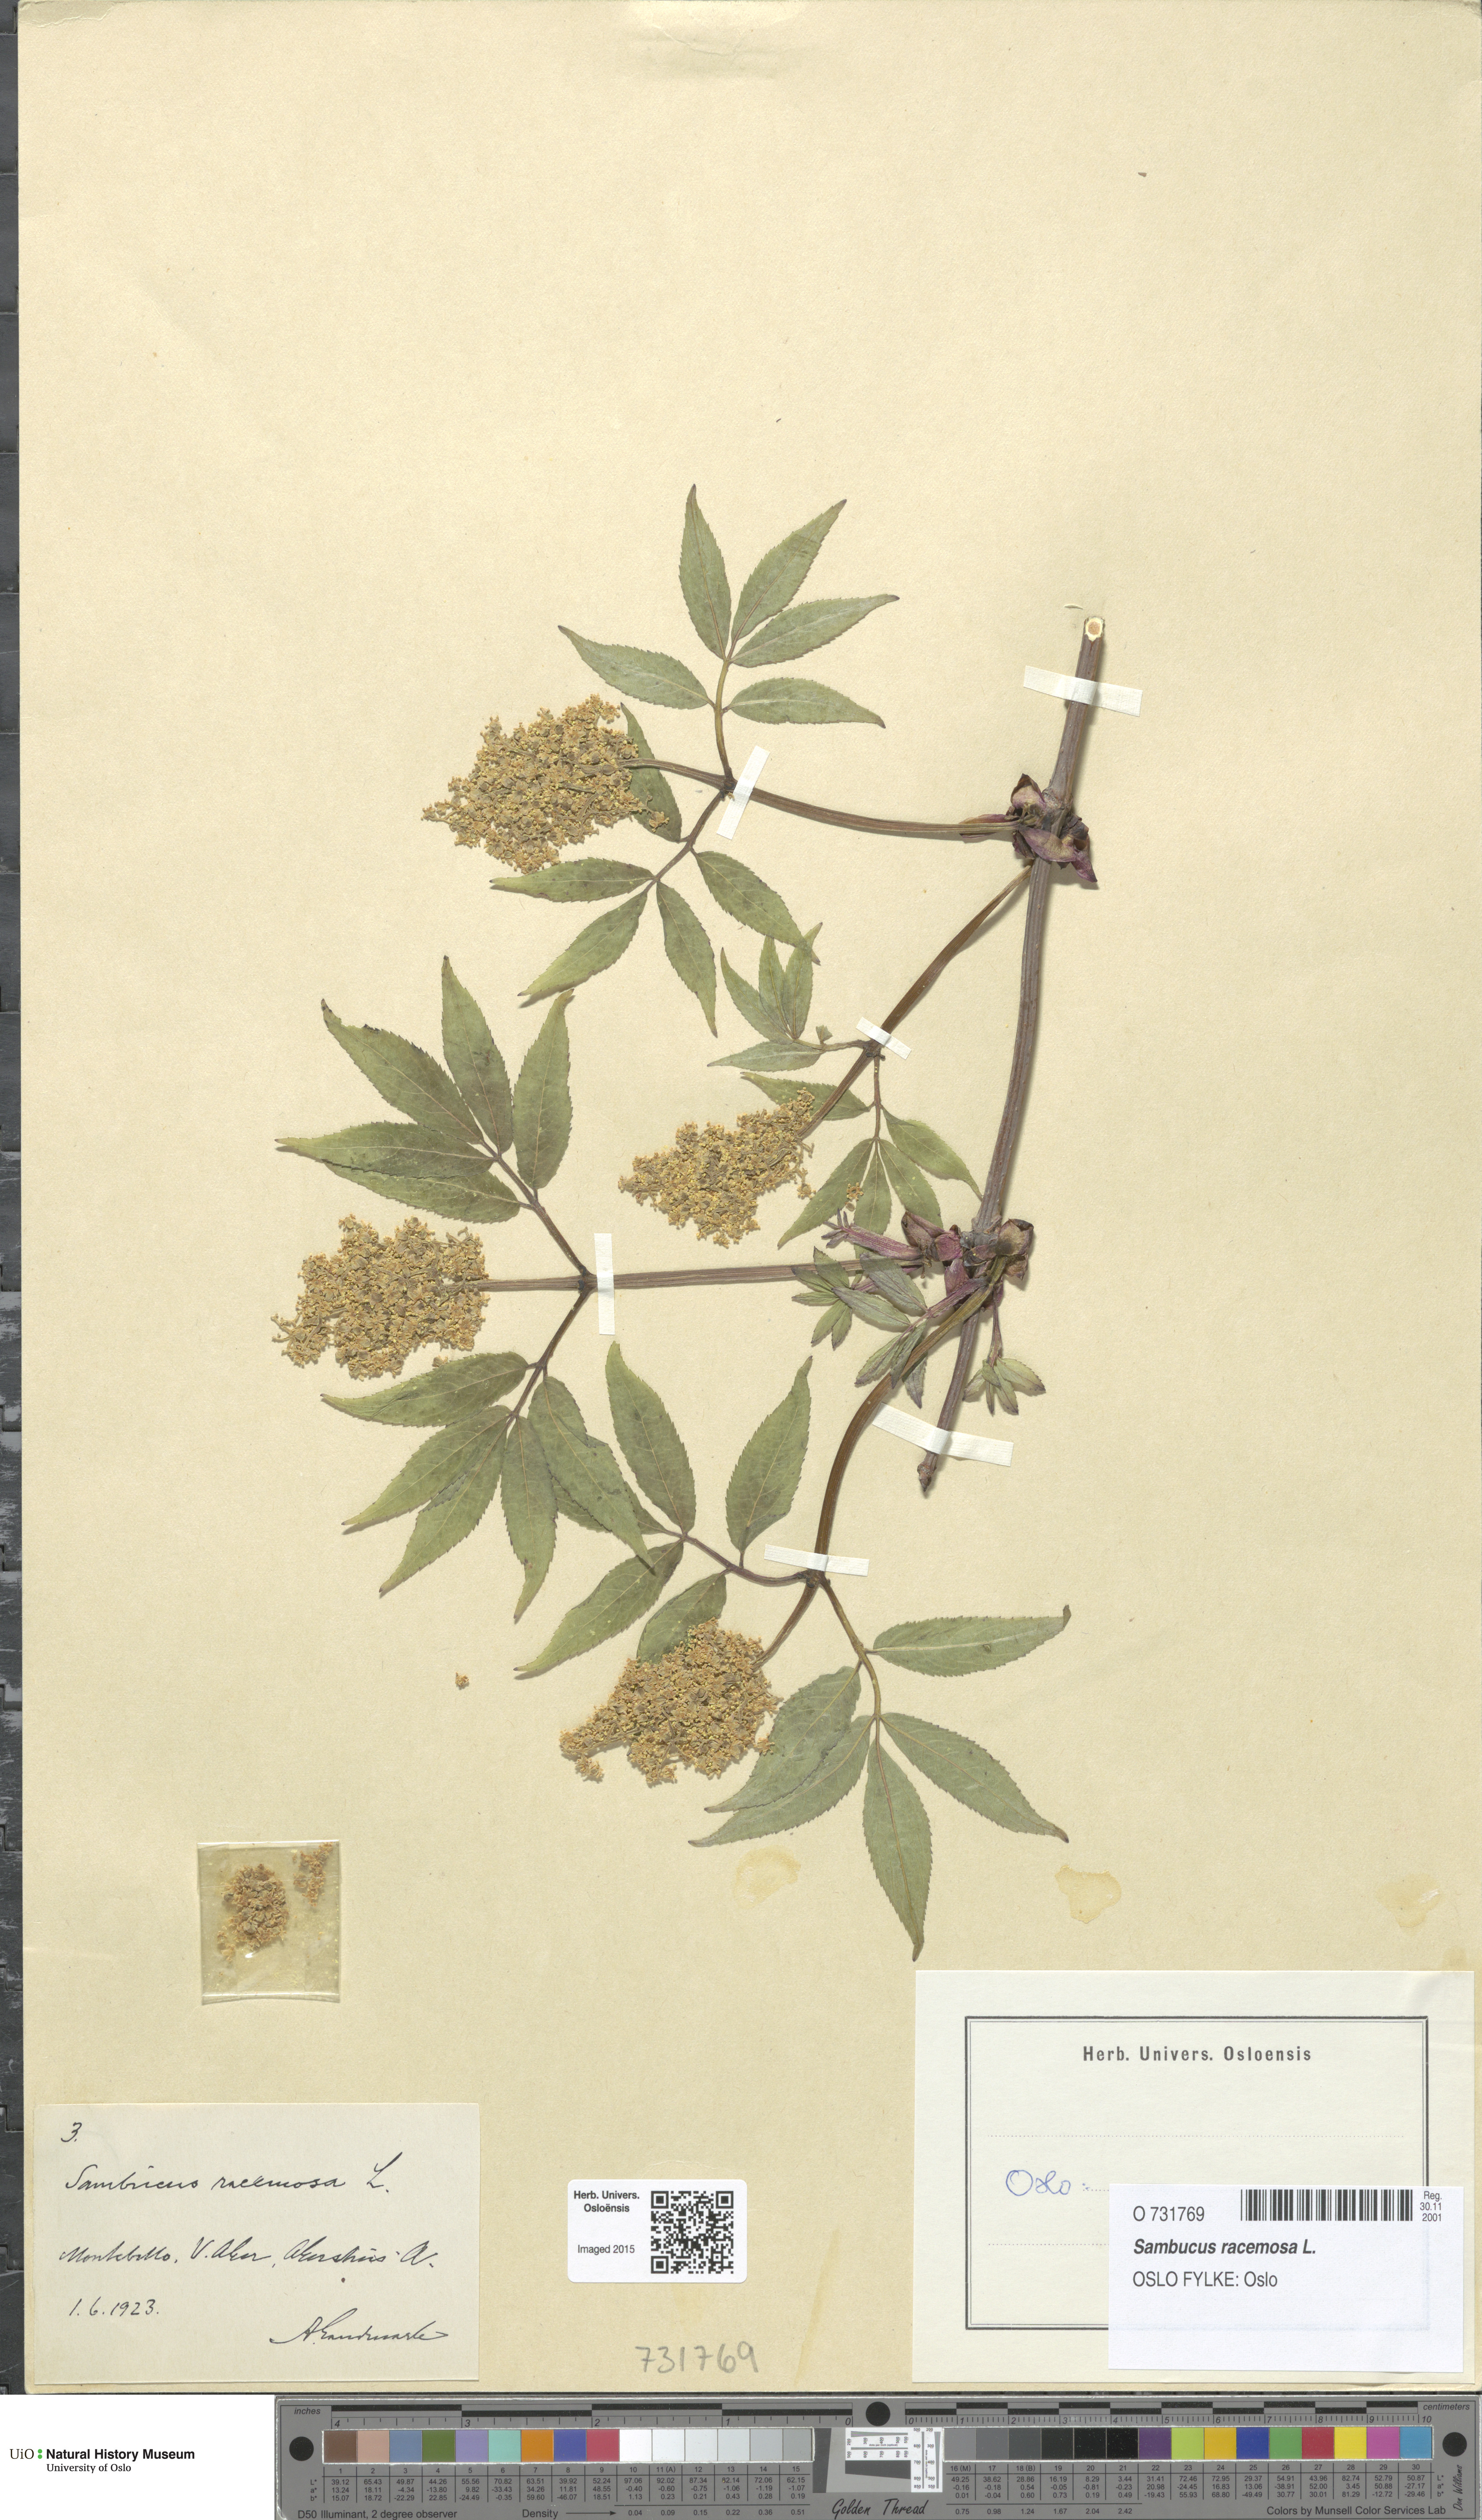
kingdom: Plantae
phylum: Tracheophyta
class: Magnoliopsida
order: Dipsacales
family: Viburnaceae
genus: Sambucus
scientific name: Sambucus racemosa
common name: Red-berried elder
